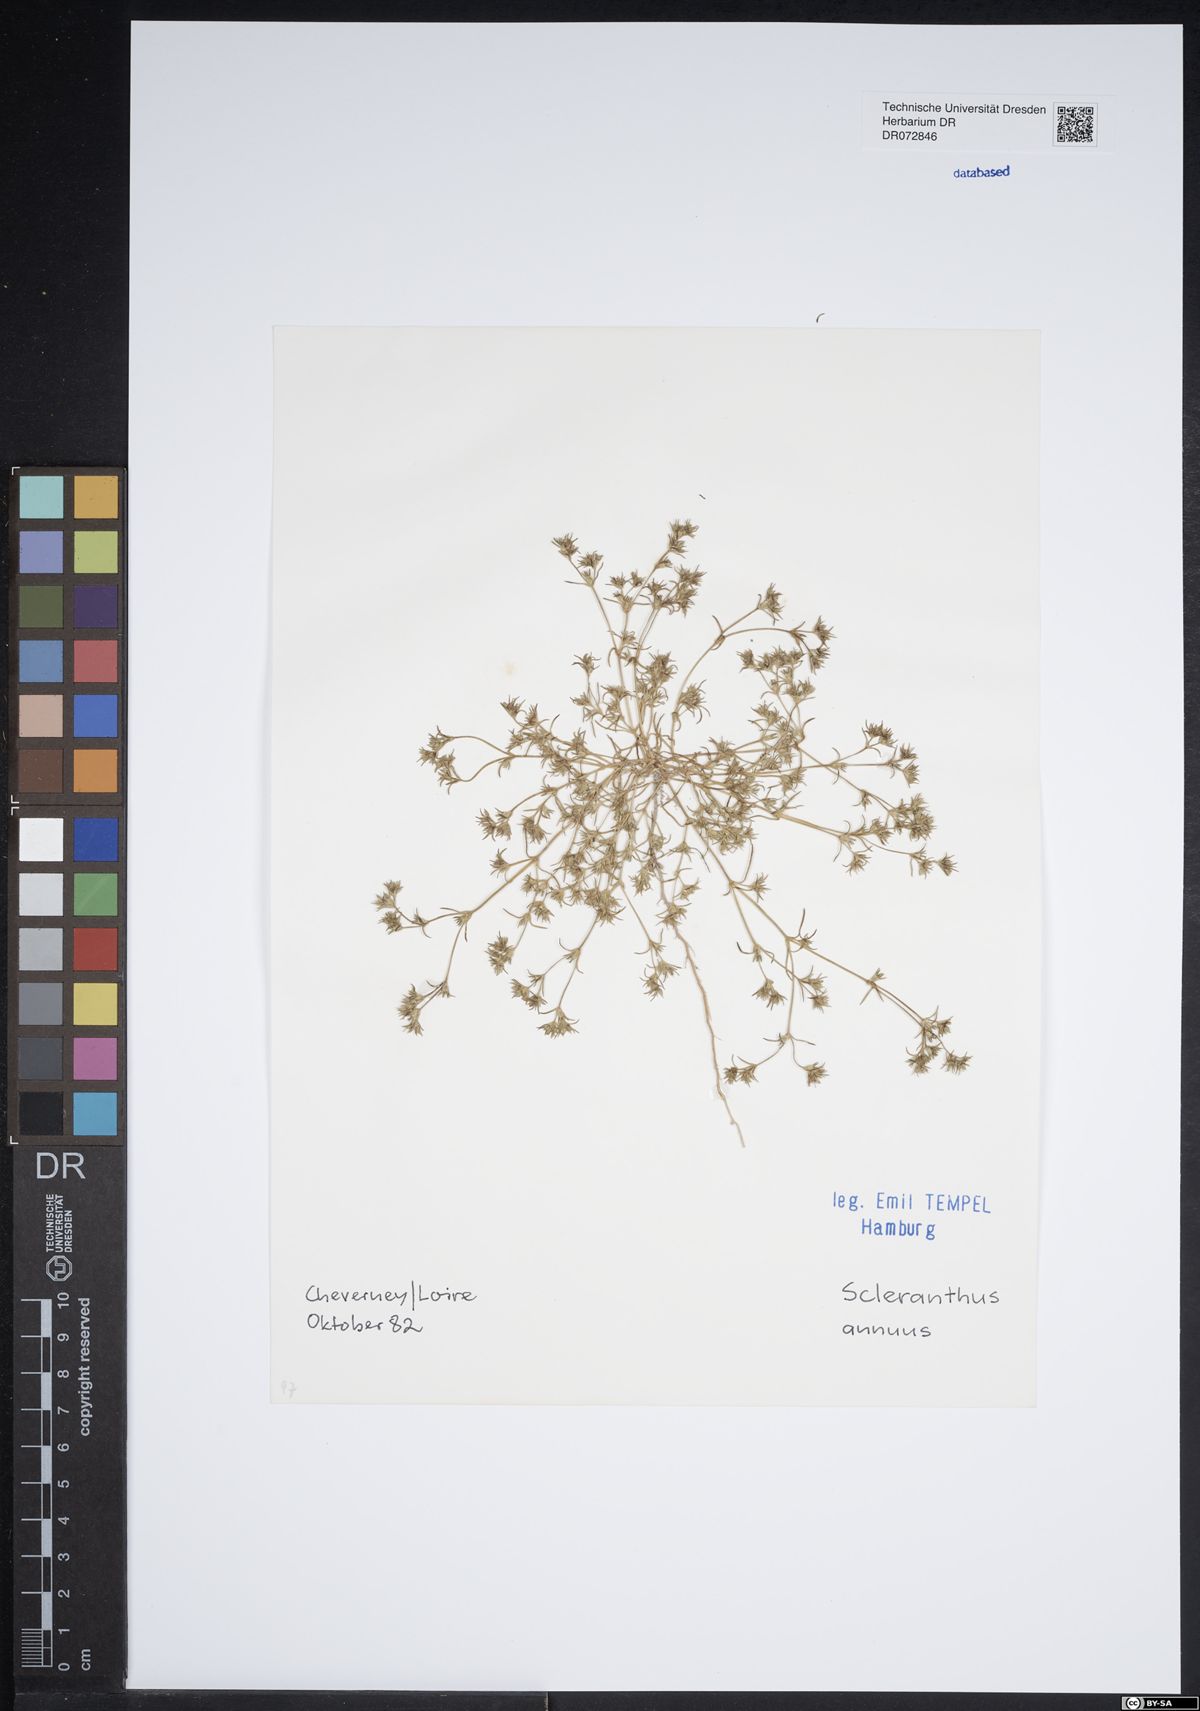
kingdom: Plantae
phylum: Tracheophyta
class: Magnoliopsida
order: Caryophyllales
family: Caryophyllaceae
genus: Scleranthus
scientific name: Scleranthus annuus
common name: Annual knawel
